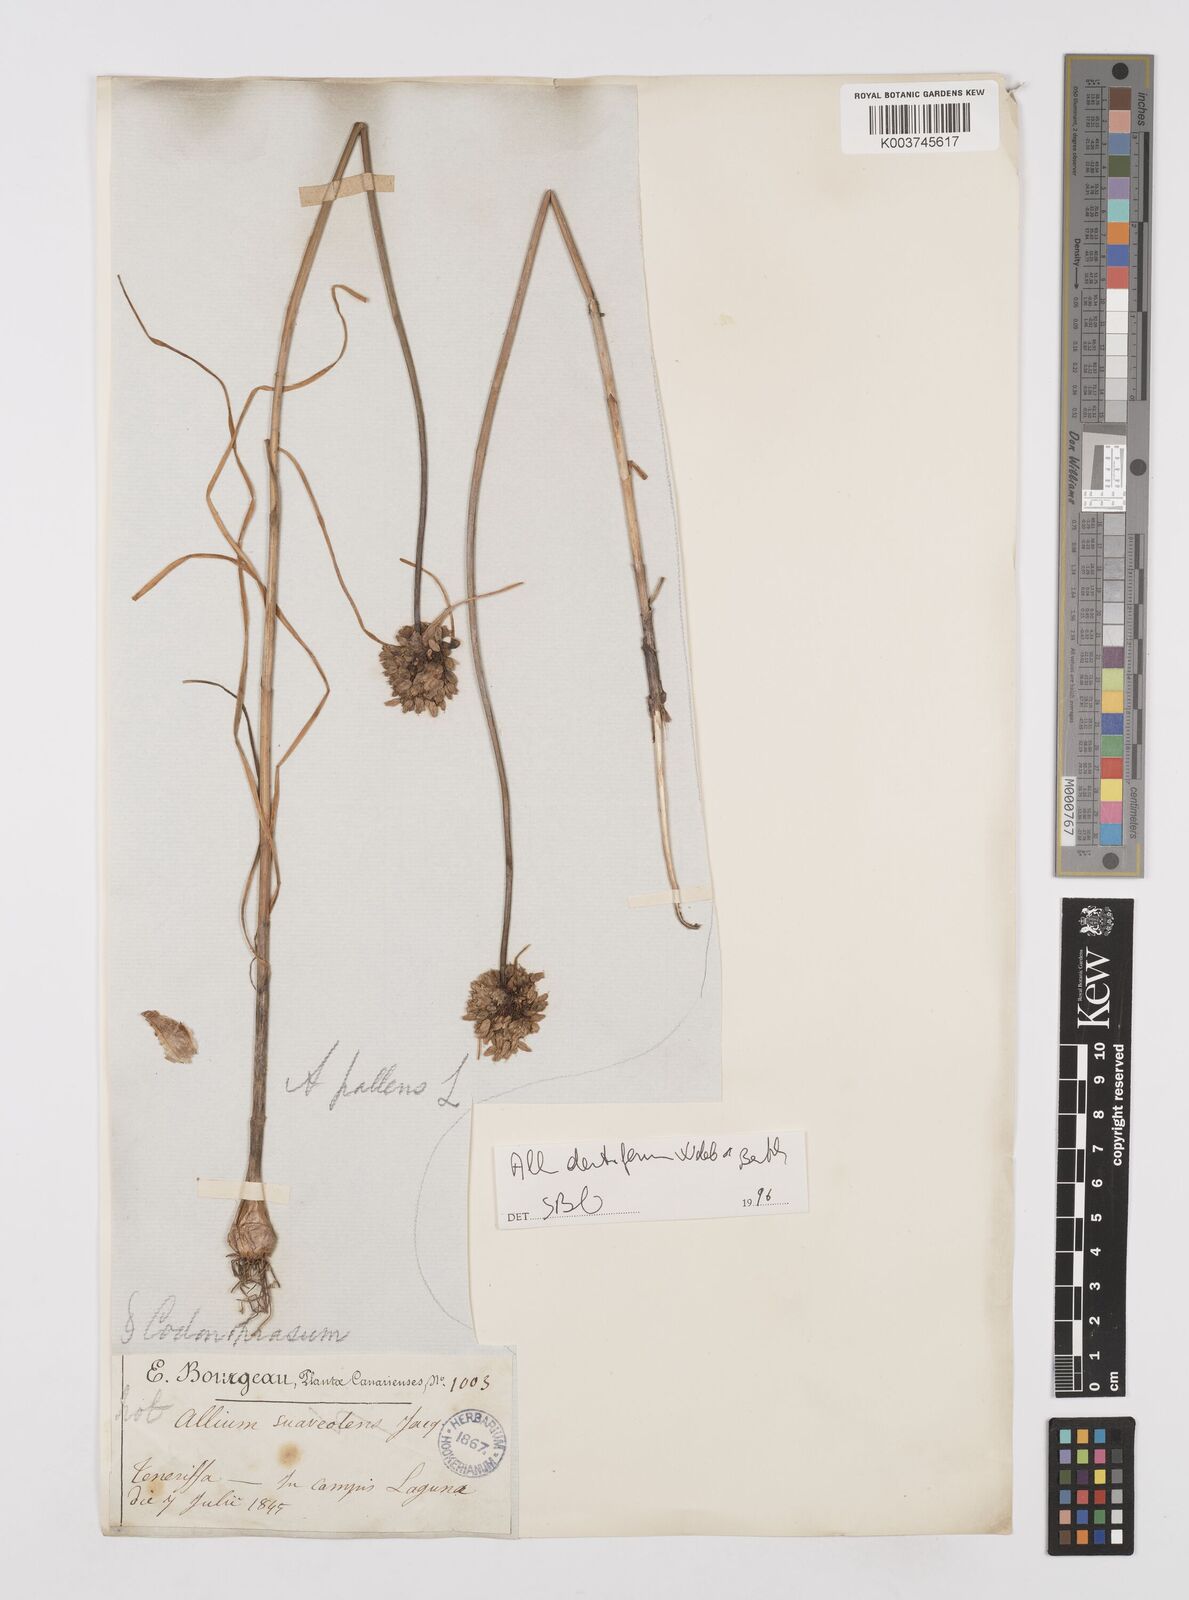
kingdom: Plantae
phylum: Tracheophyta
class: Liliopsida
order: Asparagales
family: Amaryllidaceae
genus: Allium
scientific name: Allium flavum
